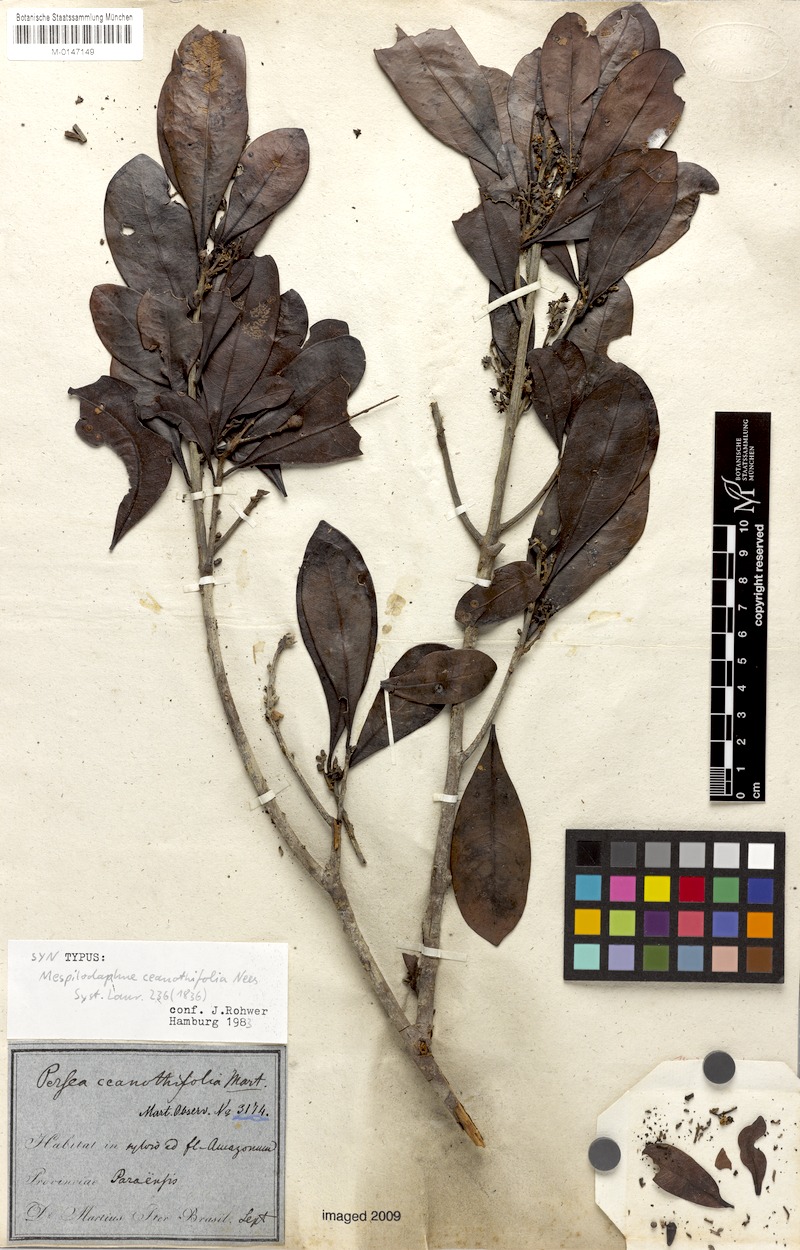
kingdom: Plantae
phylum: Tracheophyta
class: Magnoliopsida
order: Laurales
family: Lauraceae
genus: Mespilodaphne
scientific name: Mespilodaphne ceanothifolia
